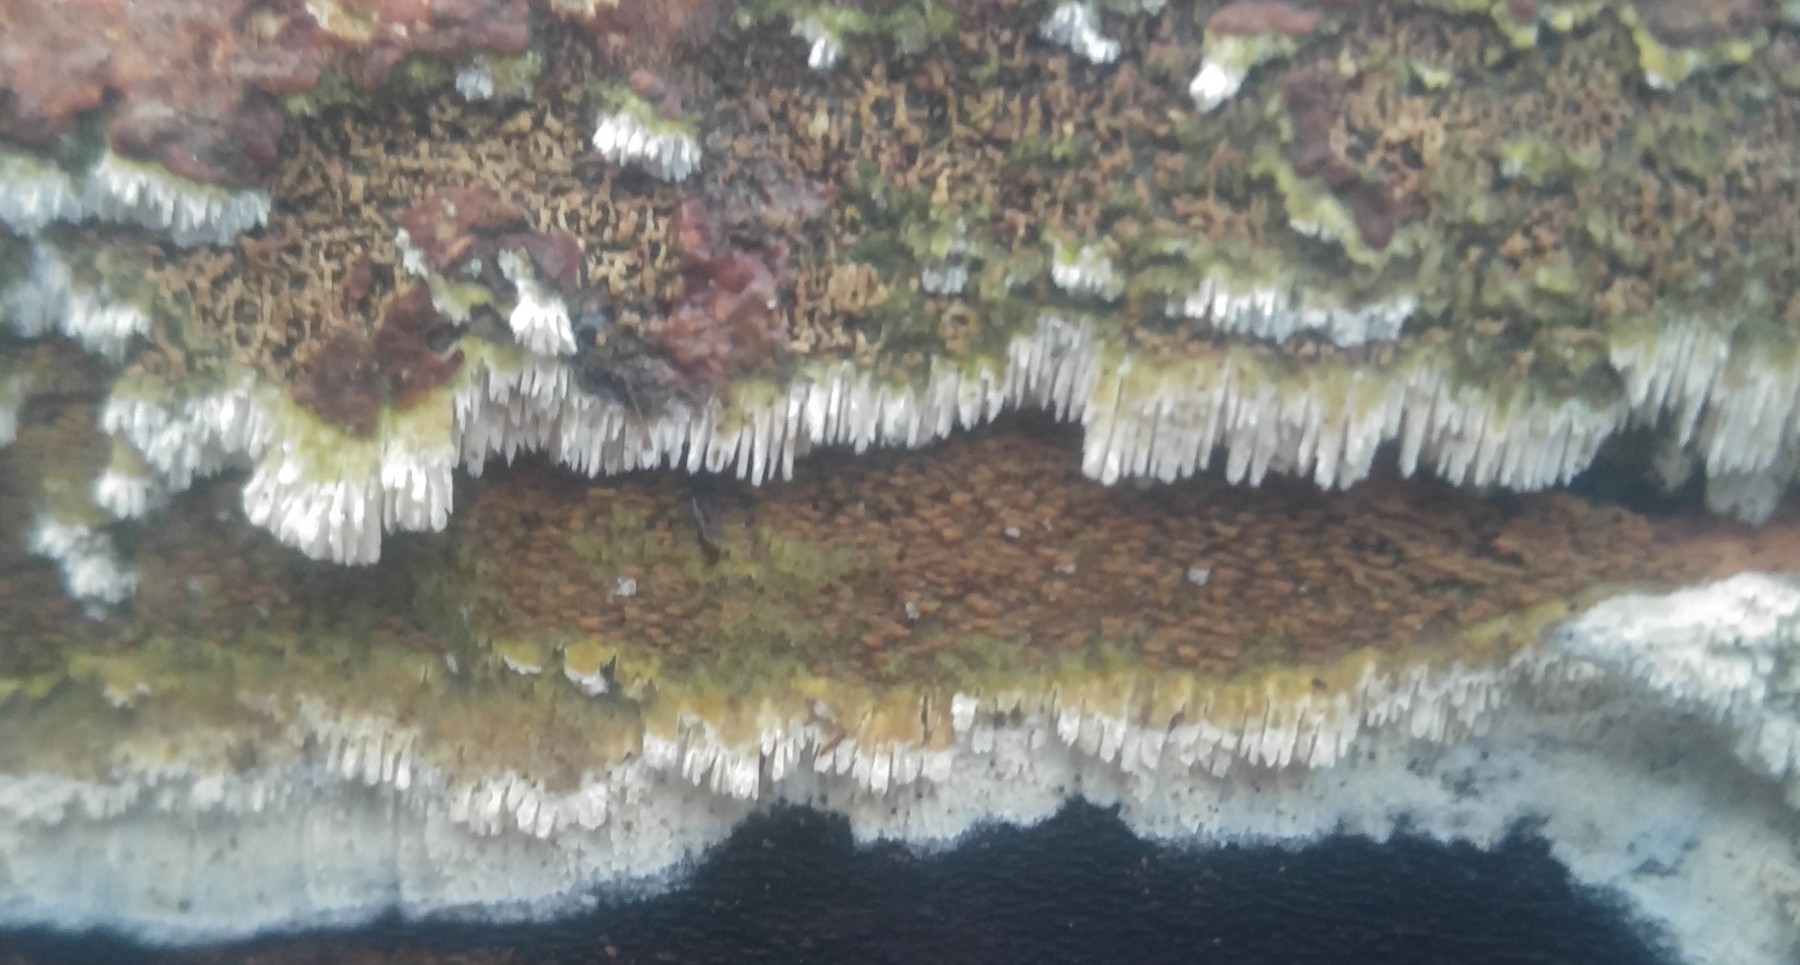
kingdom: Fungi
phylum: Basidiomycota
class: Agaricomycetes
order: Hymenochaetales
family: Schizoporaceae
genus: Schizopora
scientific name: Schizopora paradoxa
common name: hvid tandsvamp
